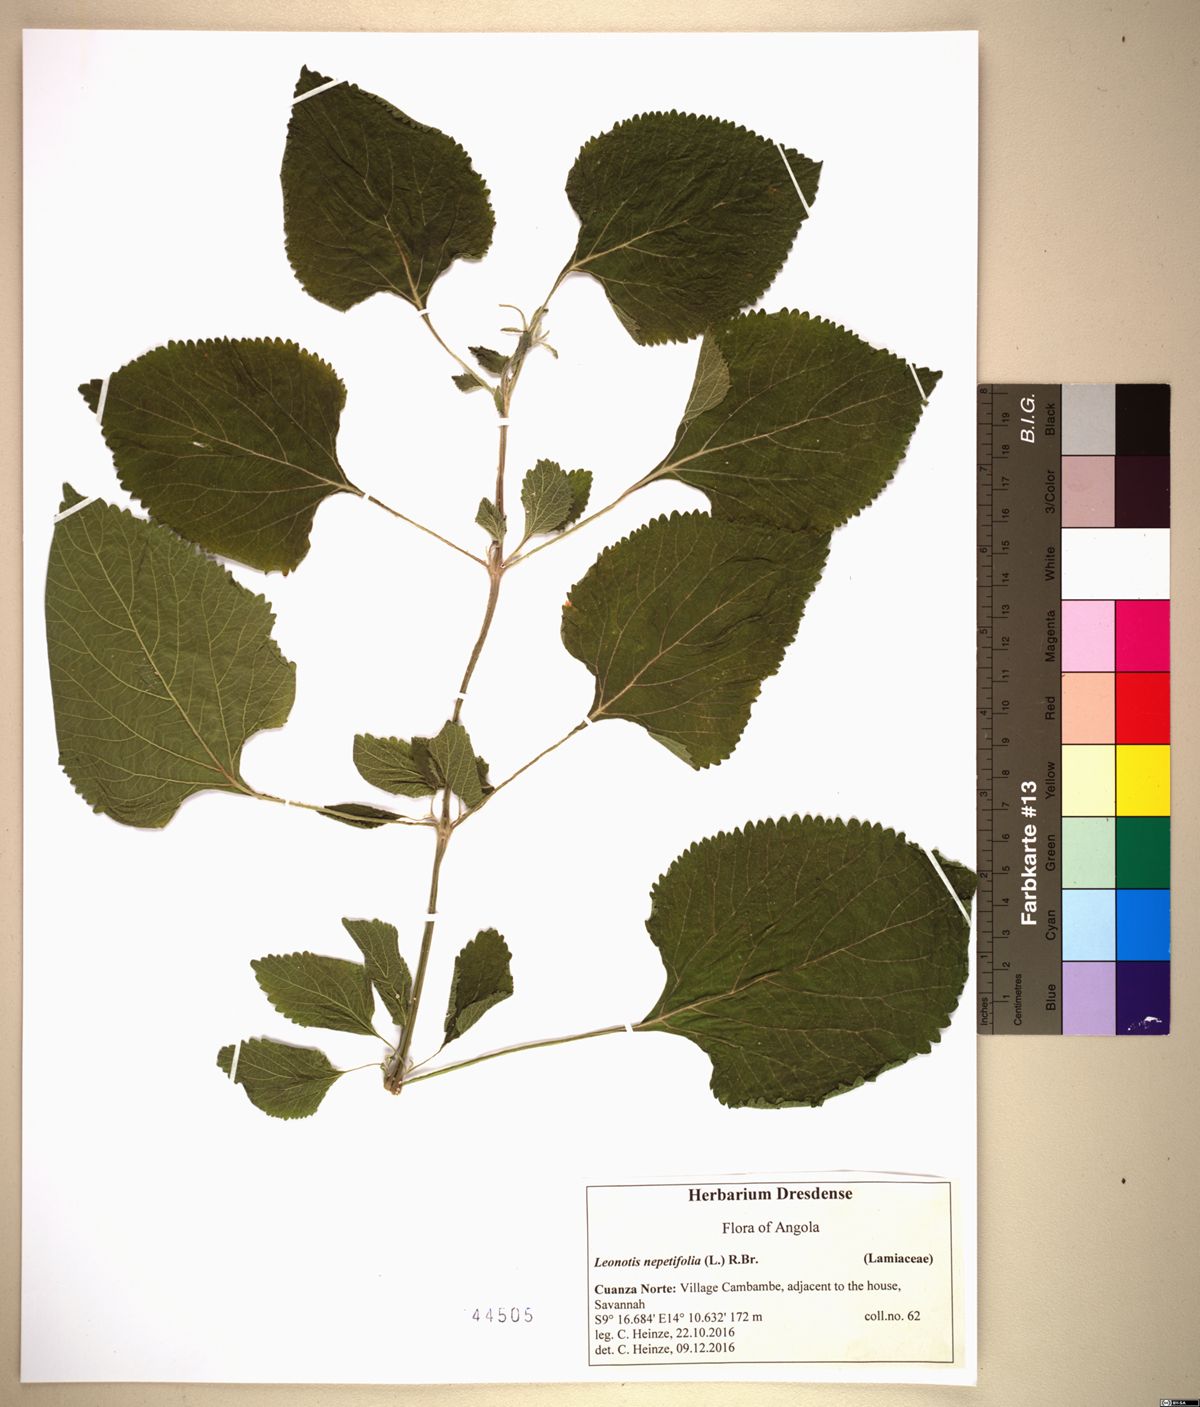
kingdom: Plantae
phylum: Tracheophyta
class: Magnoliopsida
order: Lamiales
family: Lamiaceae
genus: Leonotis
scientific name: Leonotis nepetifolia
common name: Christmas candlestick
